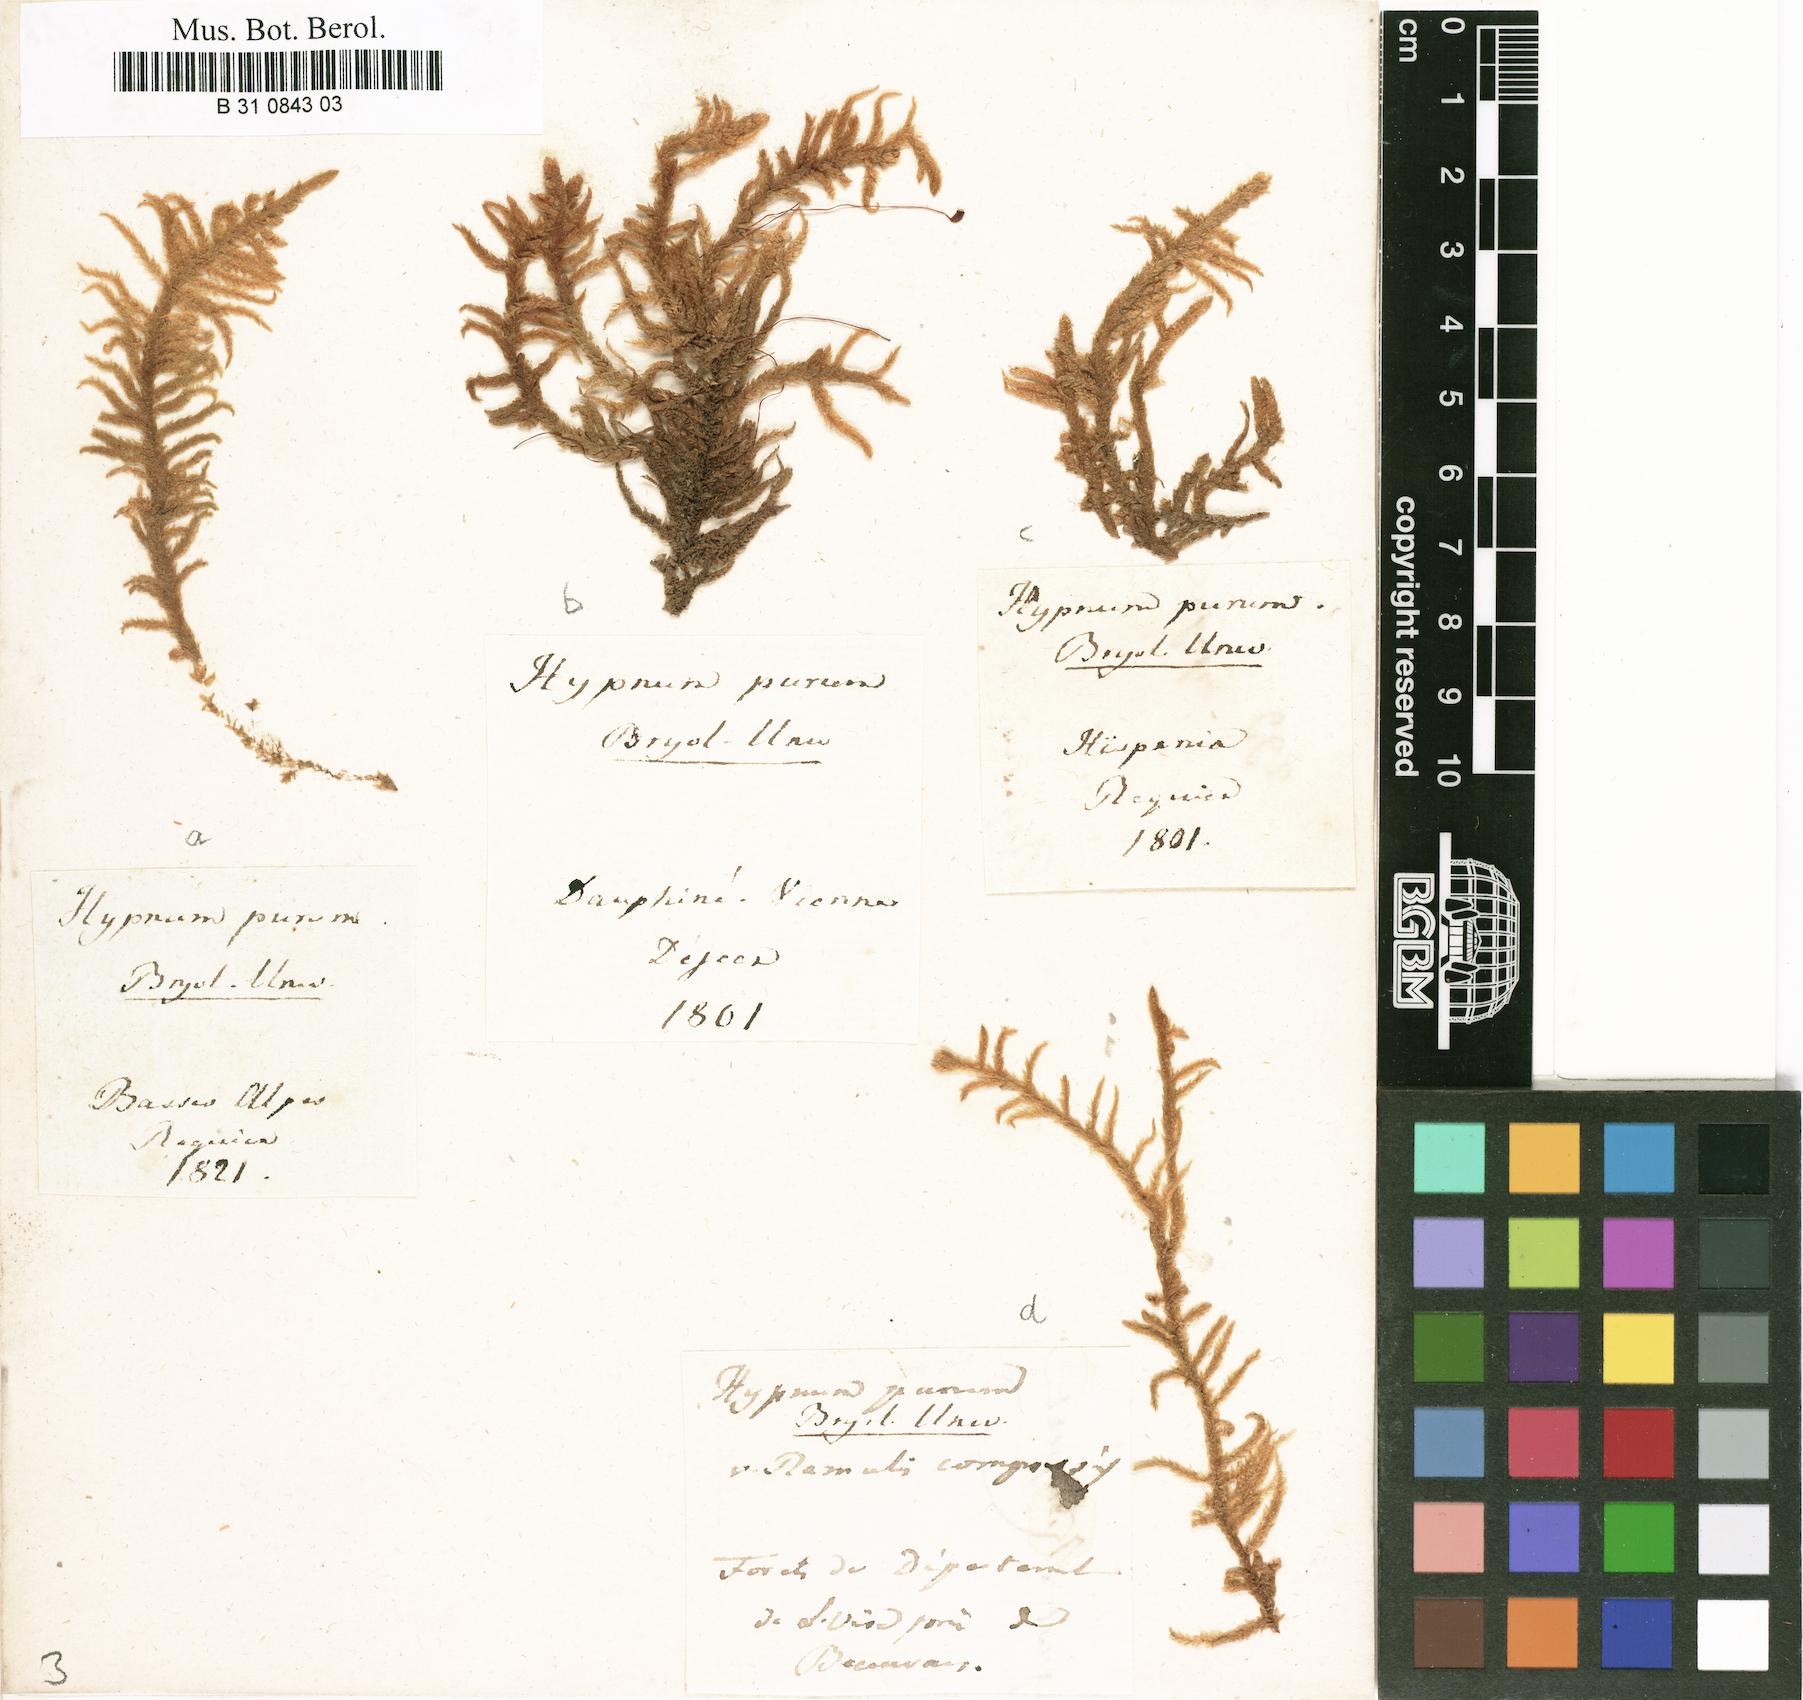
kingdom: Plantae
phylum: Bryophyta
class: Bryopsida
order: Hypnales
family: Brachytheciaceae
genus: Pseudoscleropodium
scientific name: Pseudoscleropodium purum
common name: Neat feather-moss
